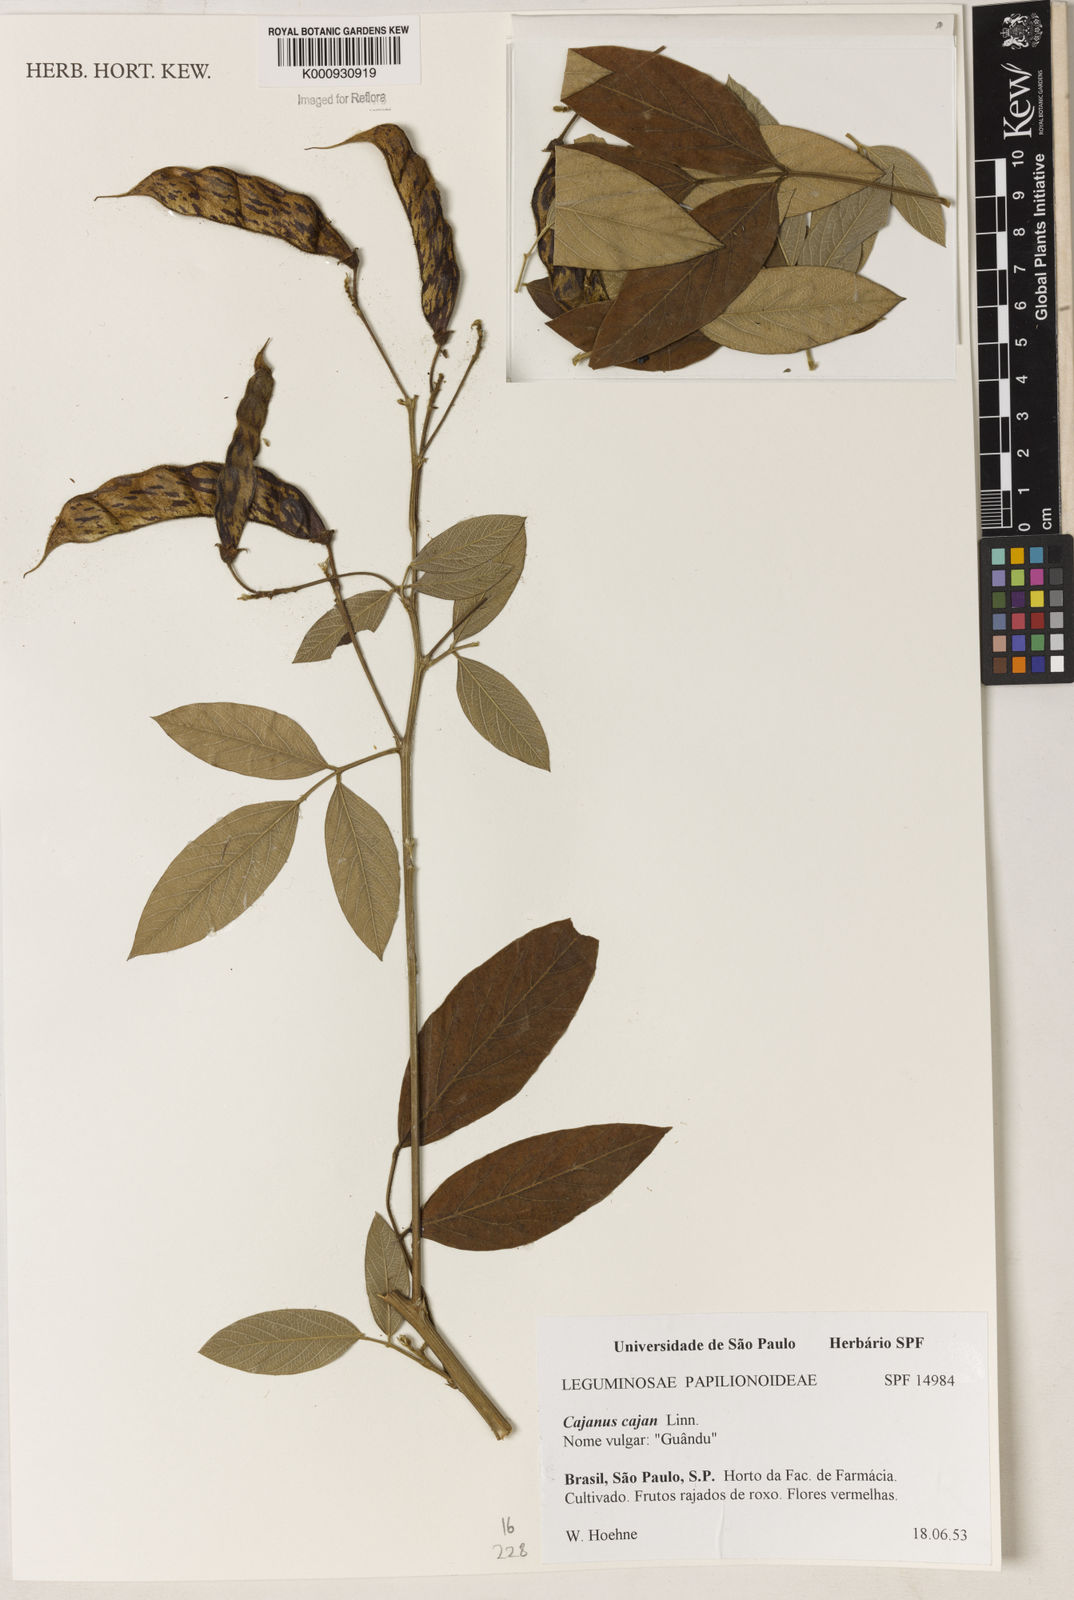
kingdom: Plantae
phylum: Tracheophyta
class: Magnoliopsida
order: Fabales
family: Fabaceae
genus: Cajanus
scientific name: Cajanus
